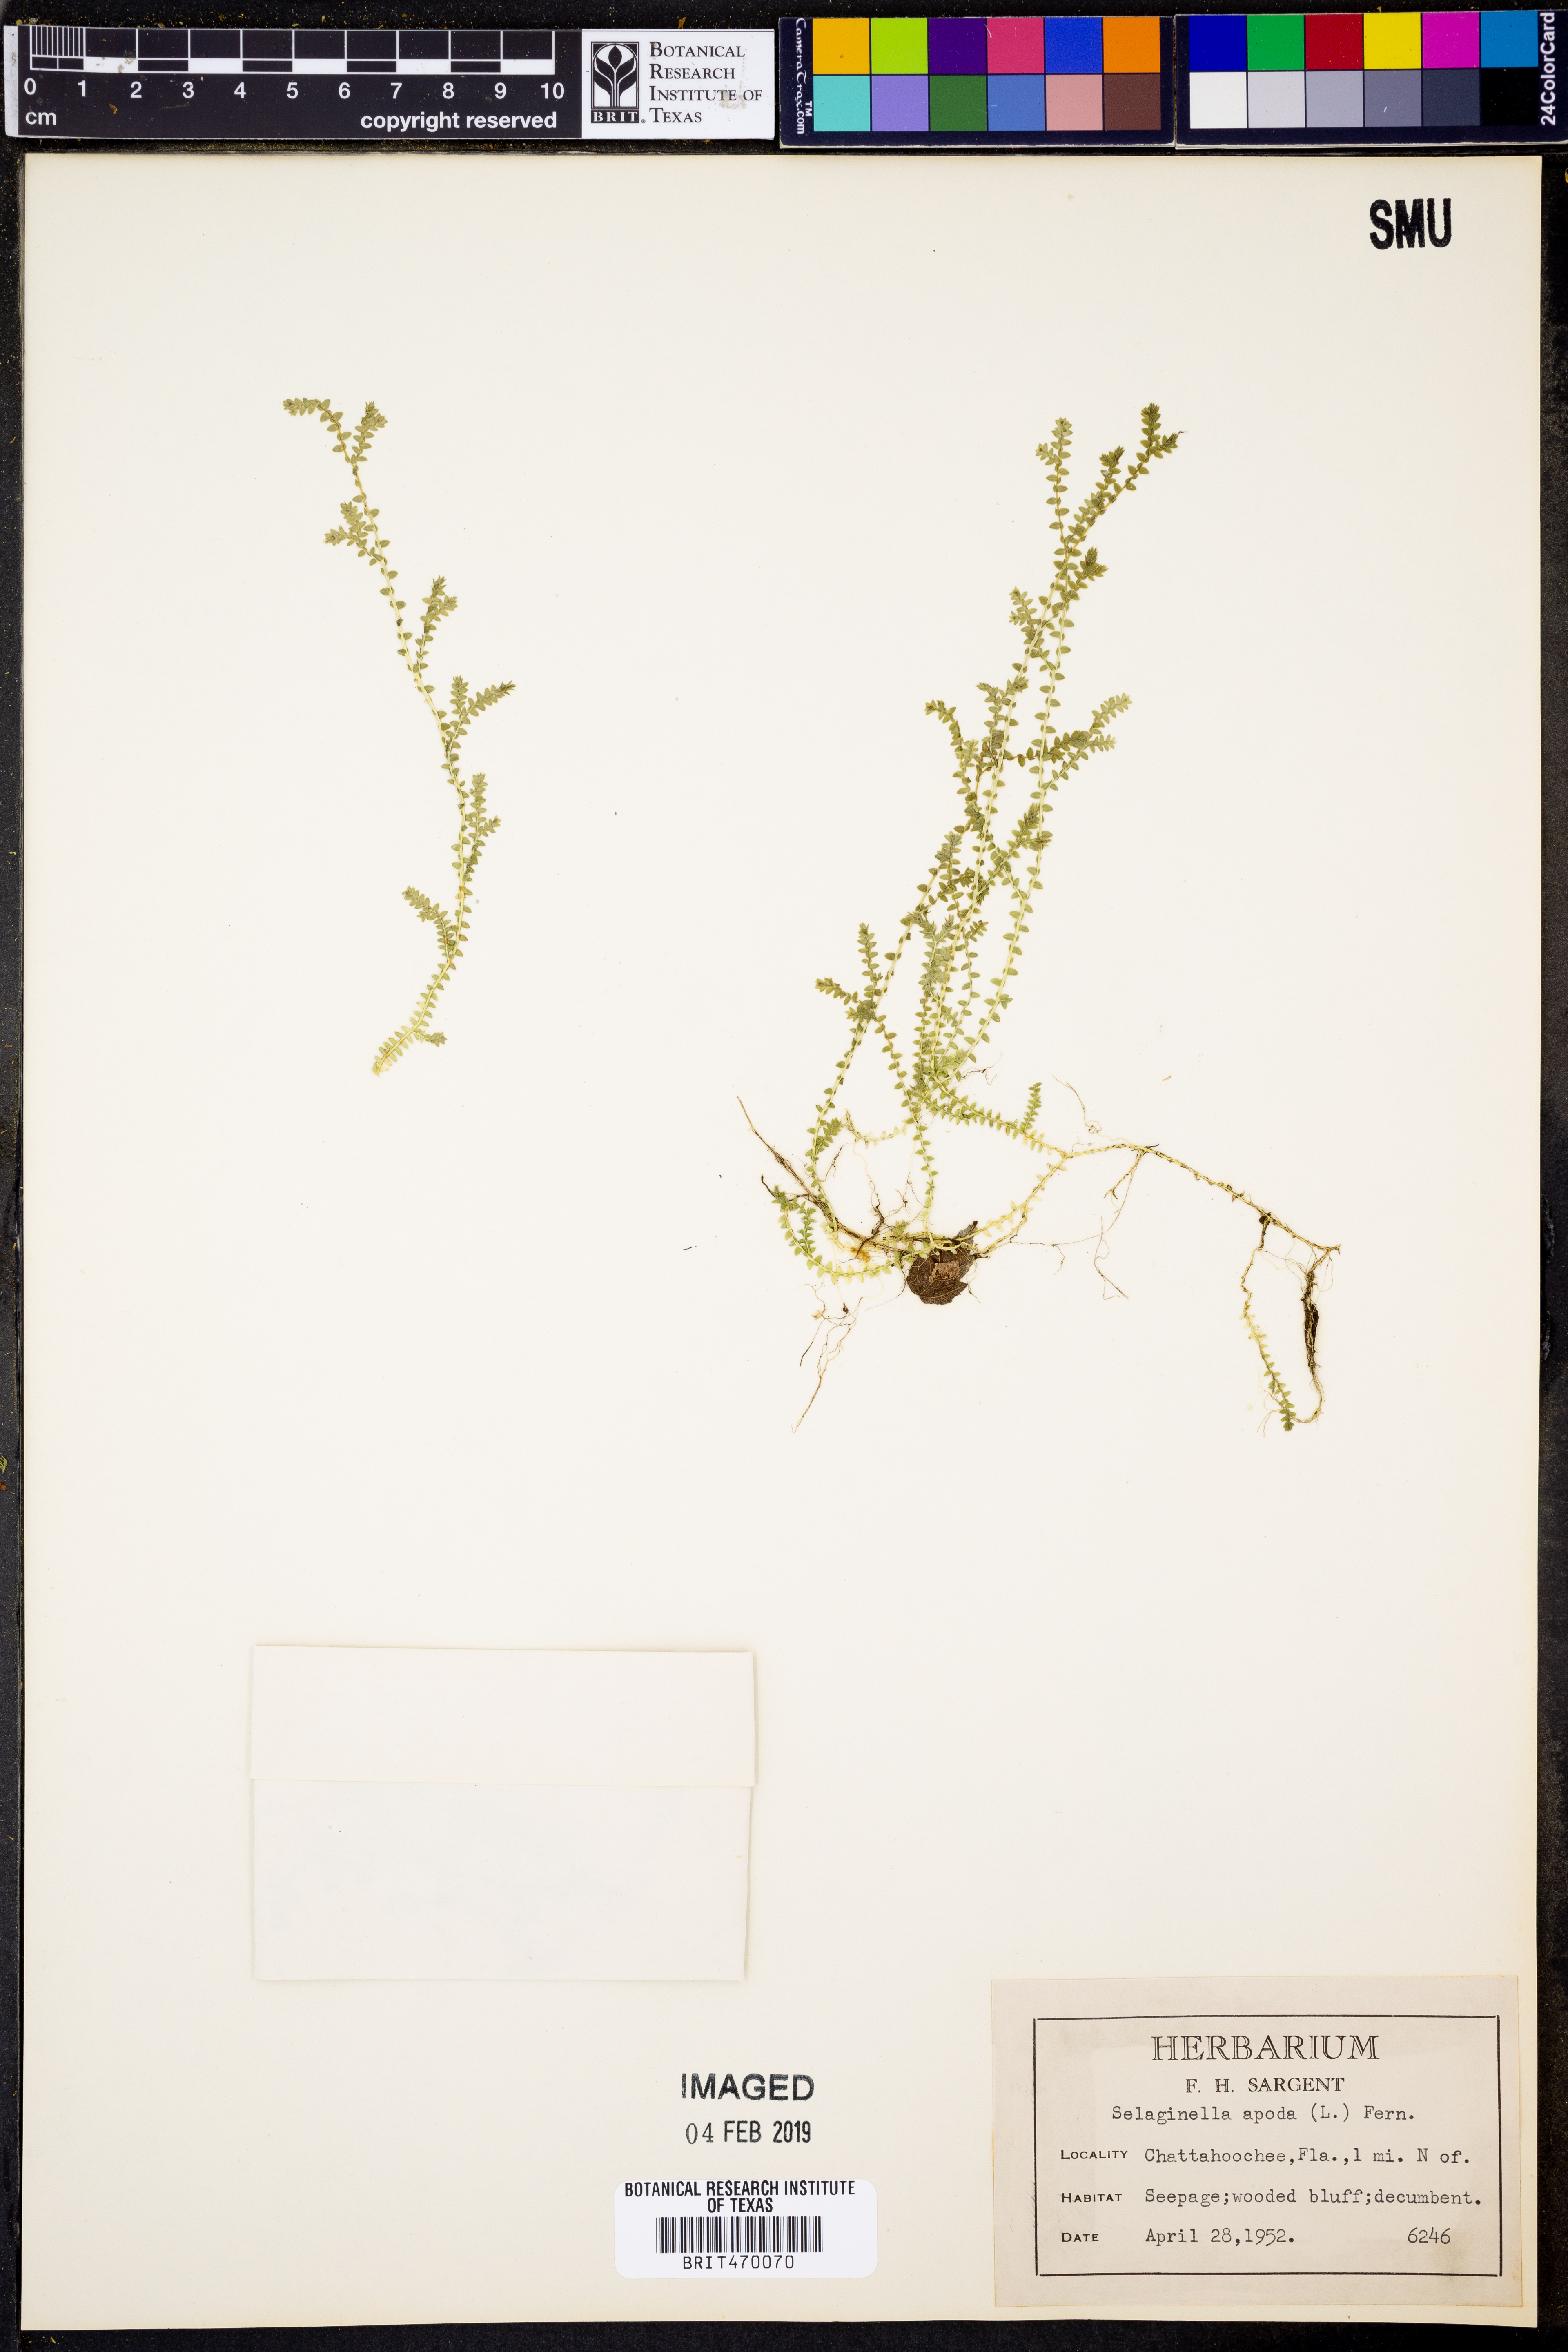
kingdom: Plantae
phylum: Tracheophyta
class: Lycopodiopsida
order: Selaginellales
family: Selaginellaceae
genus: Selaginella
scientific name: Selaginella apoda
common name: Creeping spikemoss
